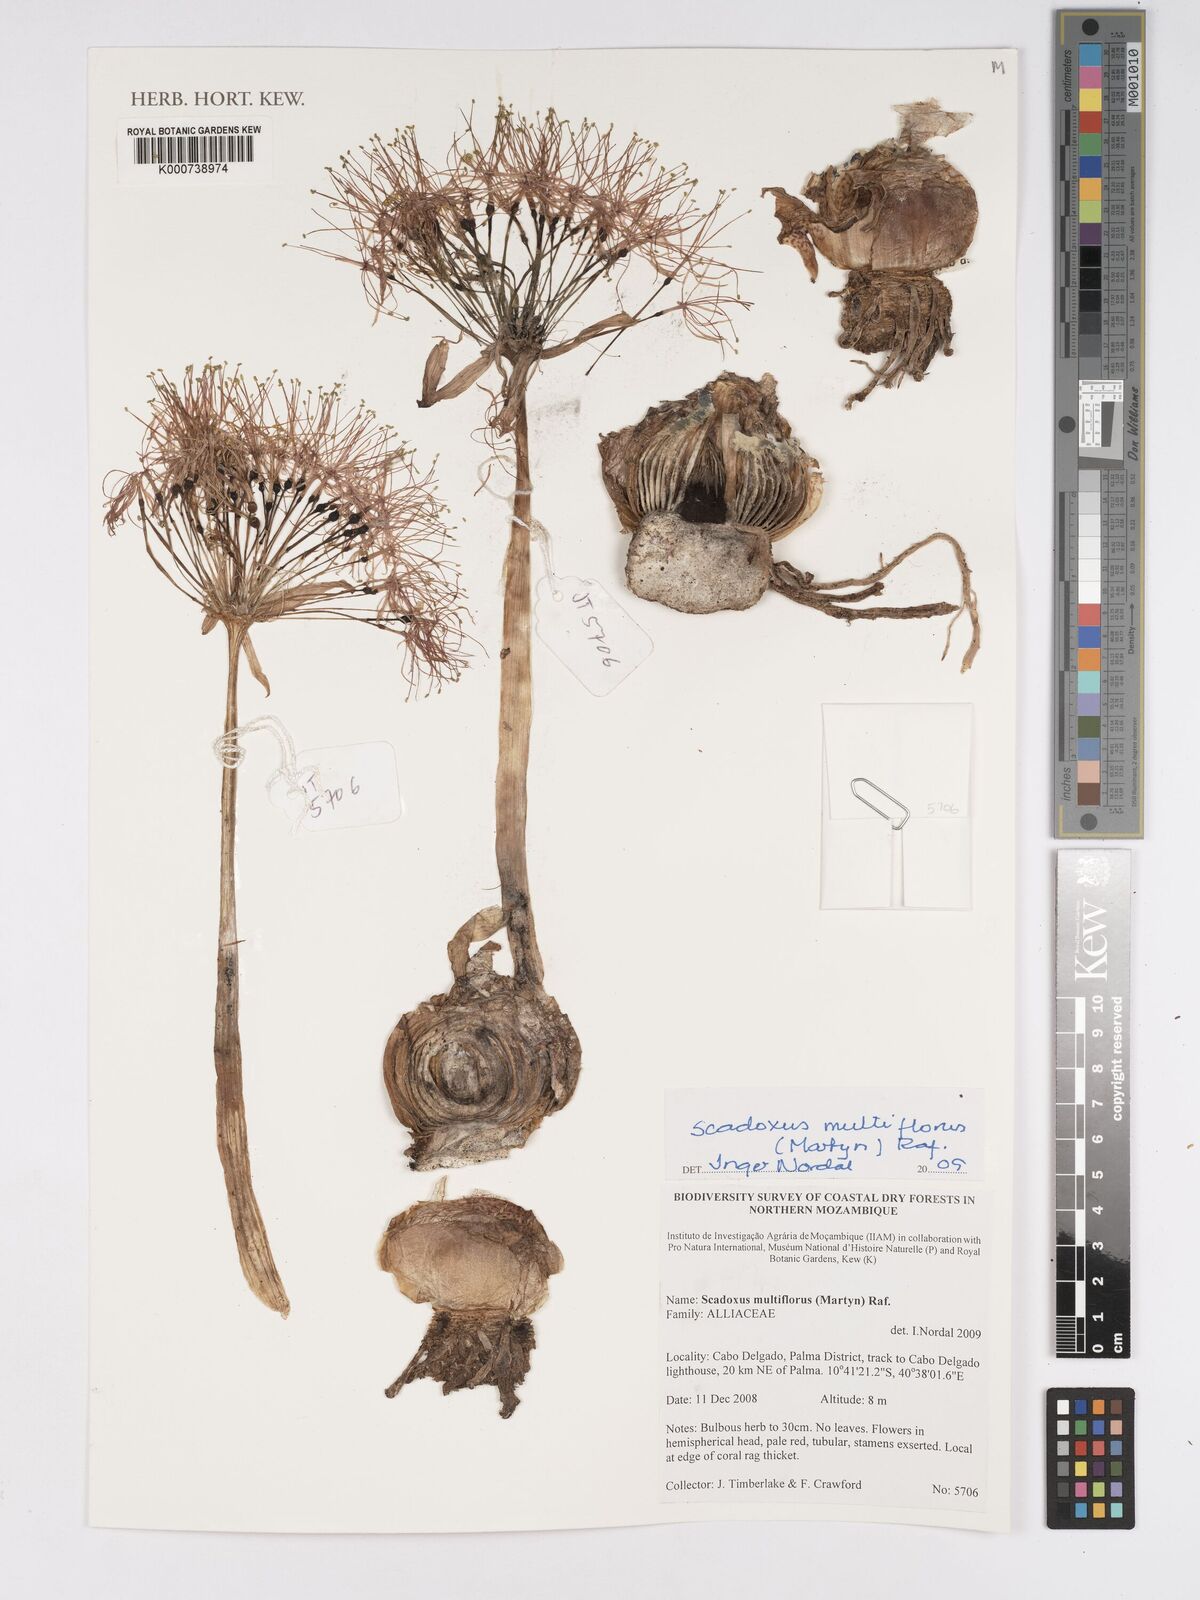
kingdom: Plantae
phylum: Tracheophyta
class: Liliopsida
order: Asparagales
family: Amaryllidaceae
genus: Scadoxus
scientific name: Scadoxus multiflorus
